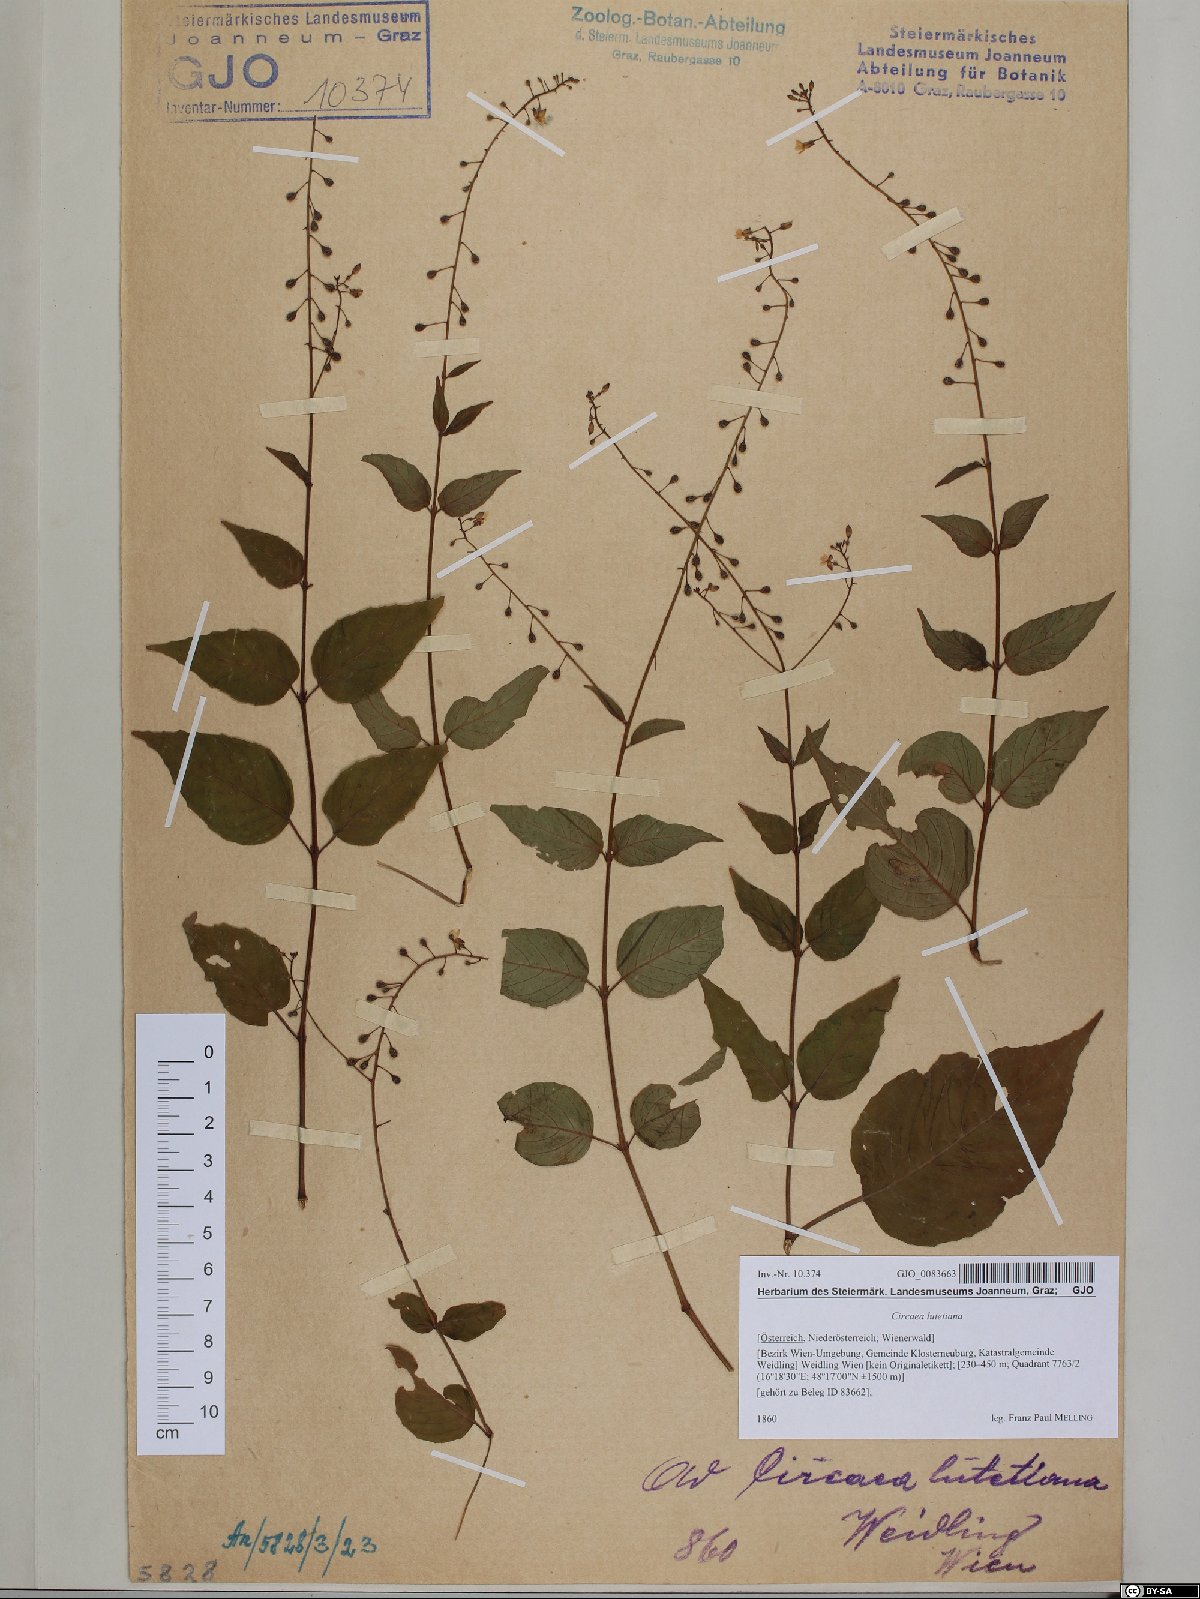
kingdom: Plantae
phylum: Tracheophyta
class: Magnoliopsida
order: Myrtales
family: Onagraceae
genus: Circaea
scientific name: Circaea lutetiana
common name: Enchanter's-nightshade
